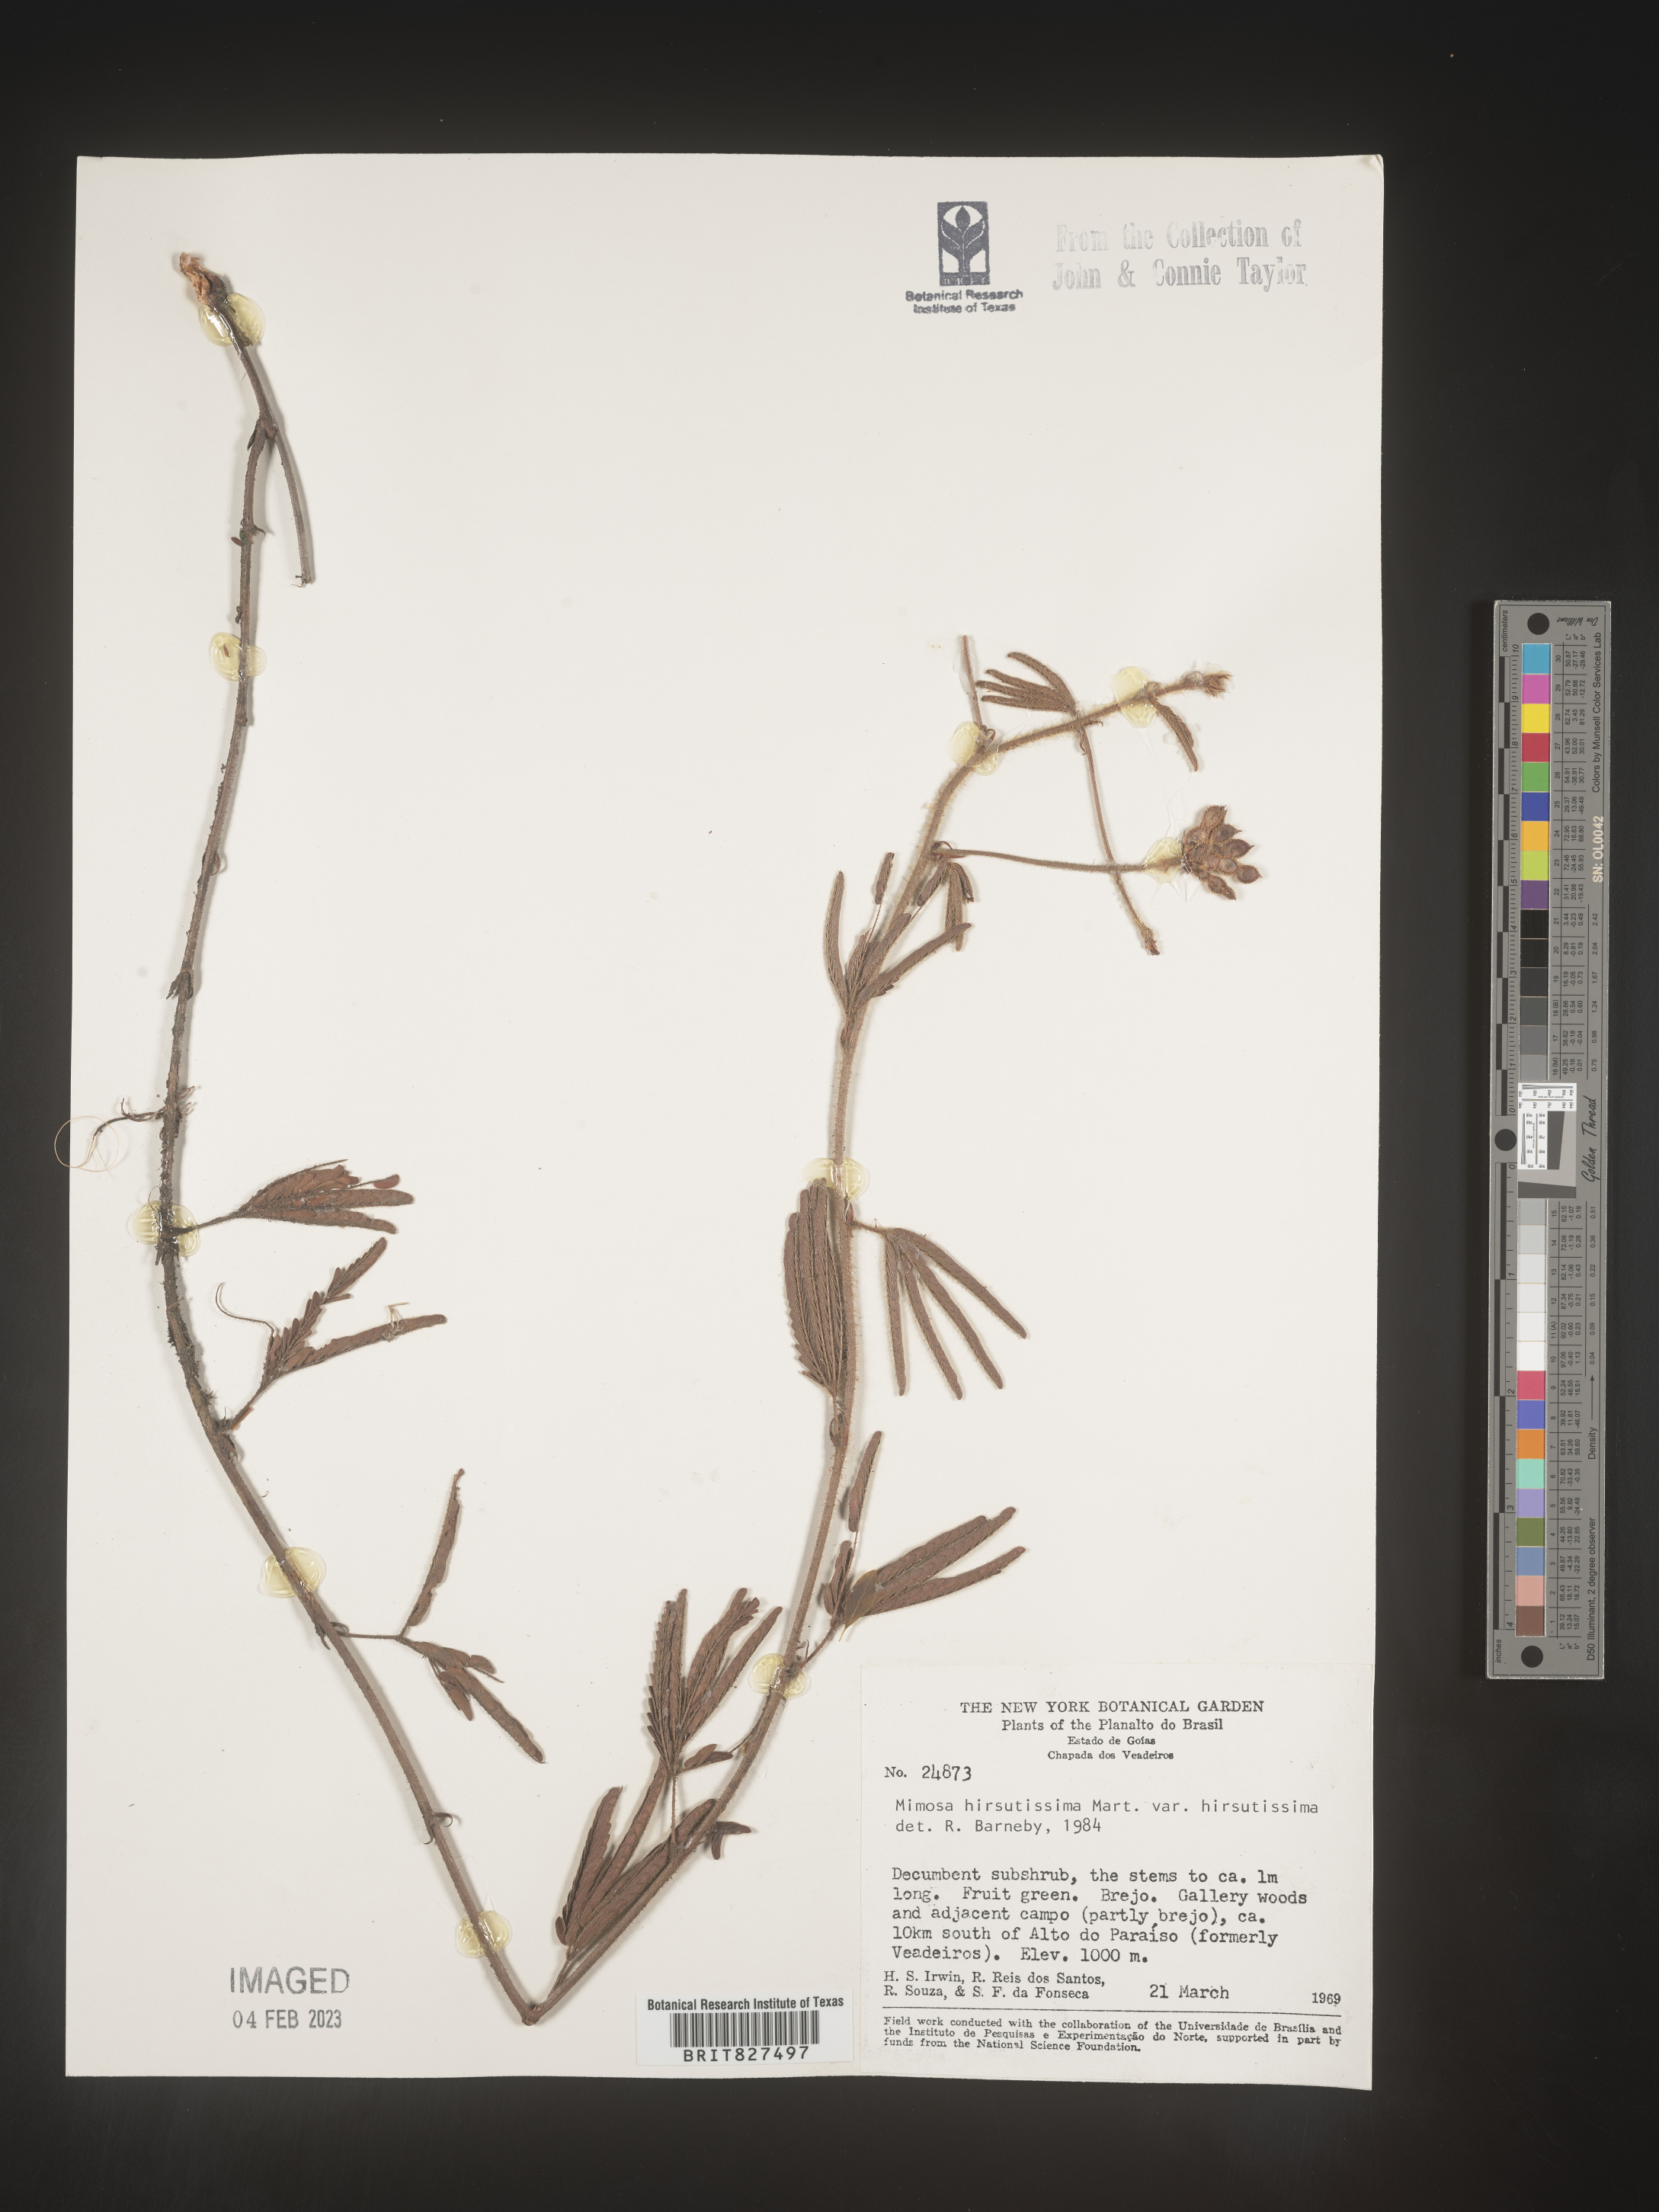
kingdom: Plantae
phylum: Tracheophyta
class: Magnoliopsida
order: Fabales
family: Fabaceae
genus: Mimosa
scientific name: Mimosa
